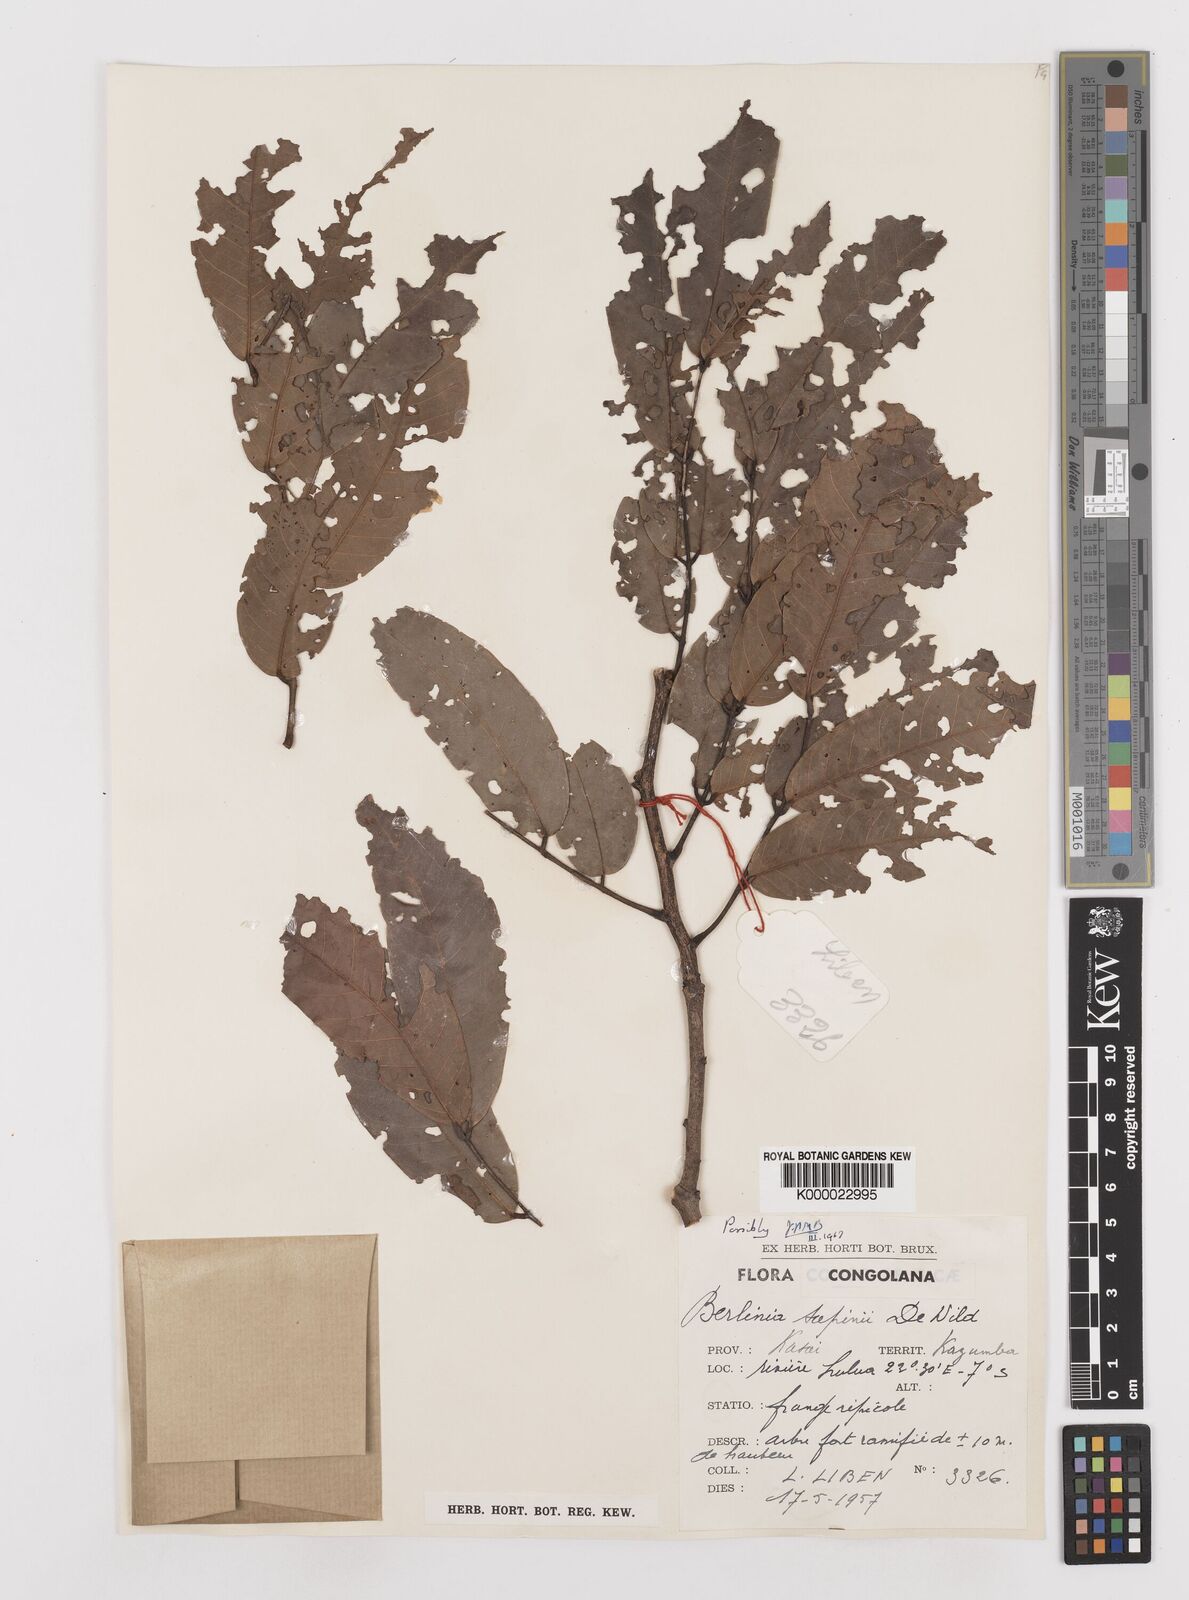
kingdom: Plantae
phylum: Tracheophyta
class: Magnoliopsida
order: Fabales
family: Fabaceae
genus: Berlinia
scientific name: Berlinia sapinii
